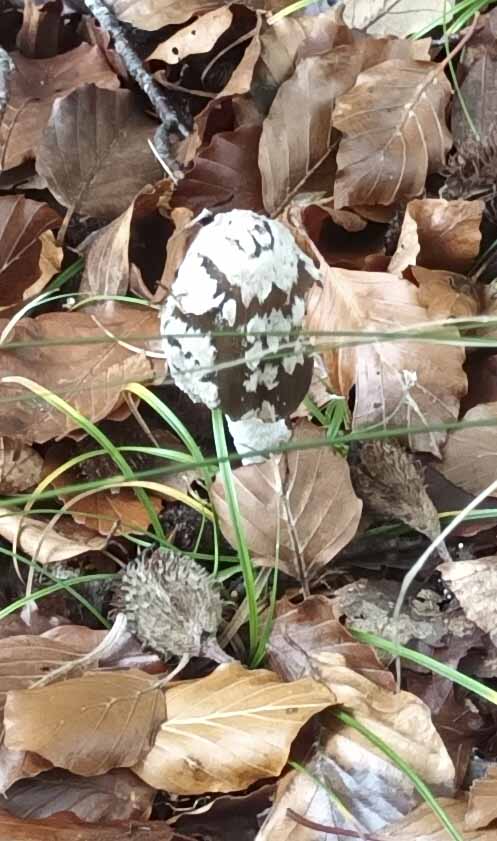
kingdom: Fungi
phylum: Basidiomycota
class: Agaricomycetes
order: Agaricales
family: Psathyrellaceae
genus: Coprinopsis
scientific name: Coprinopsis picacea
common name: skade-blækhat
